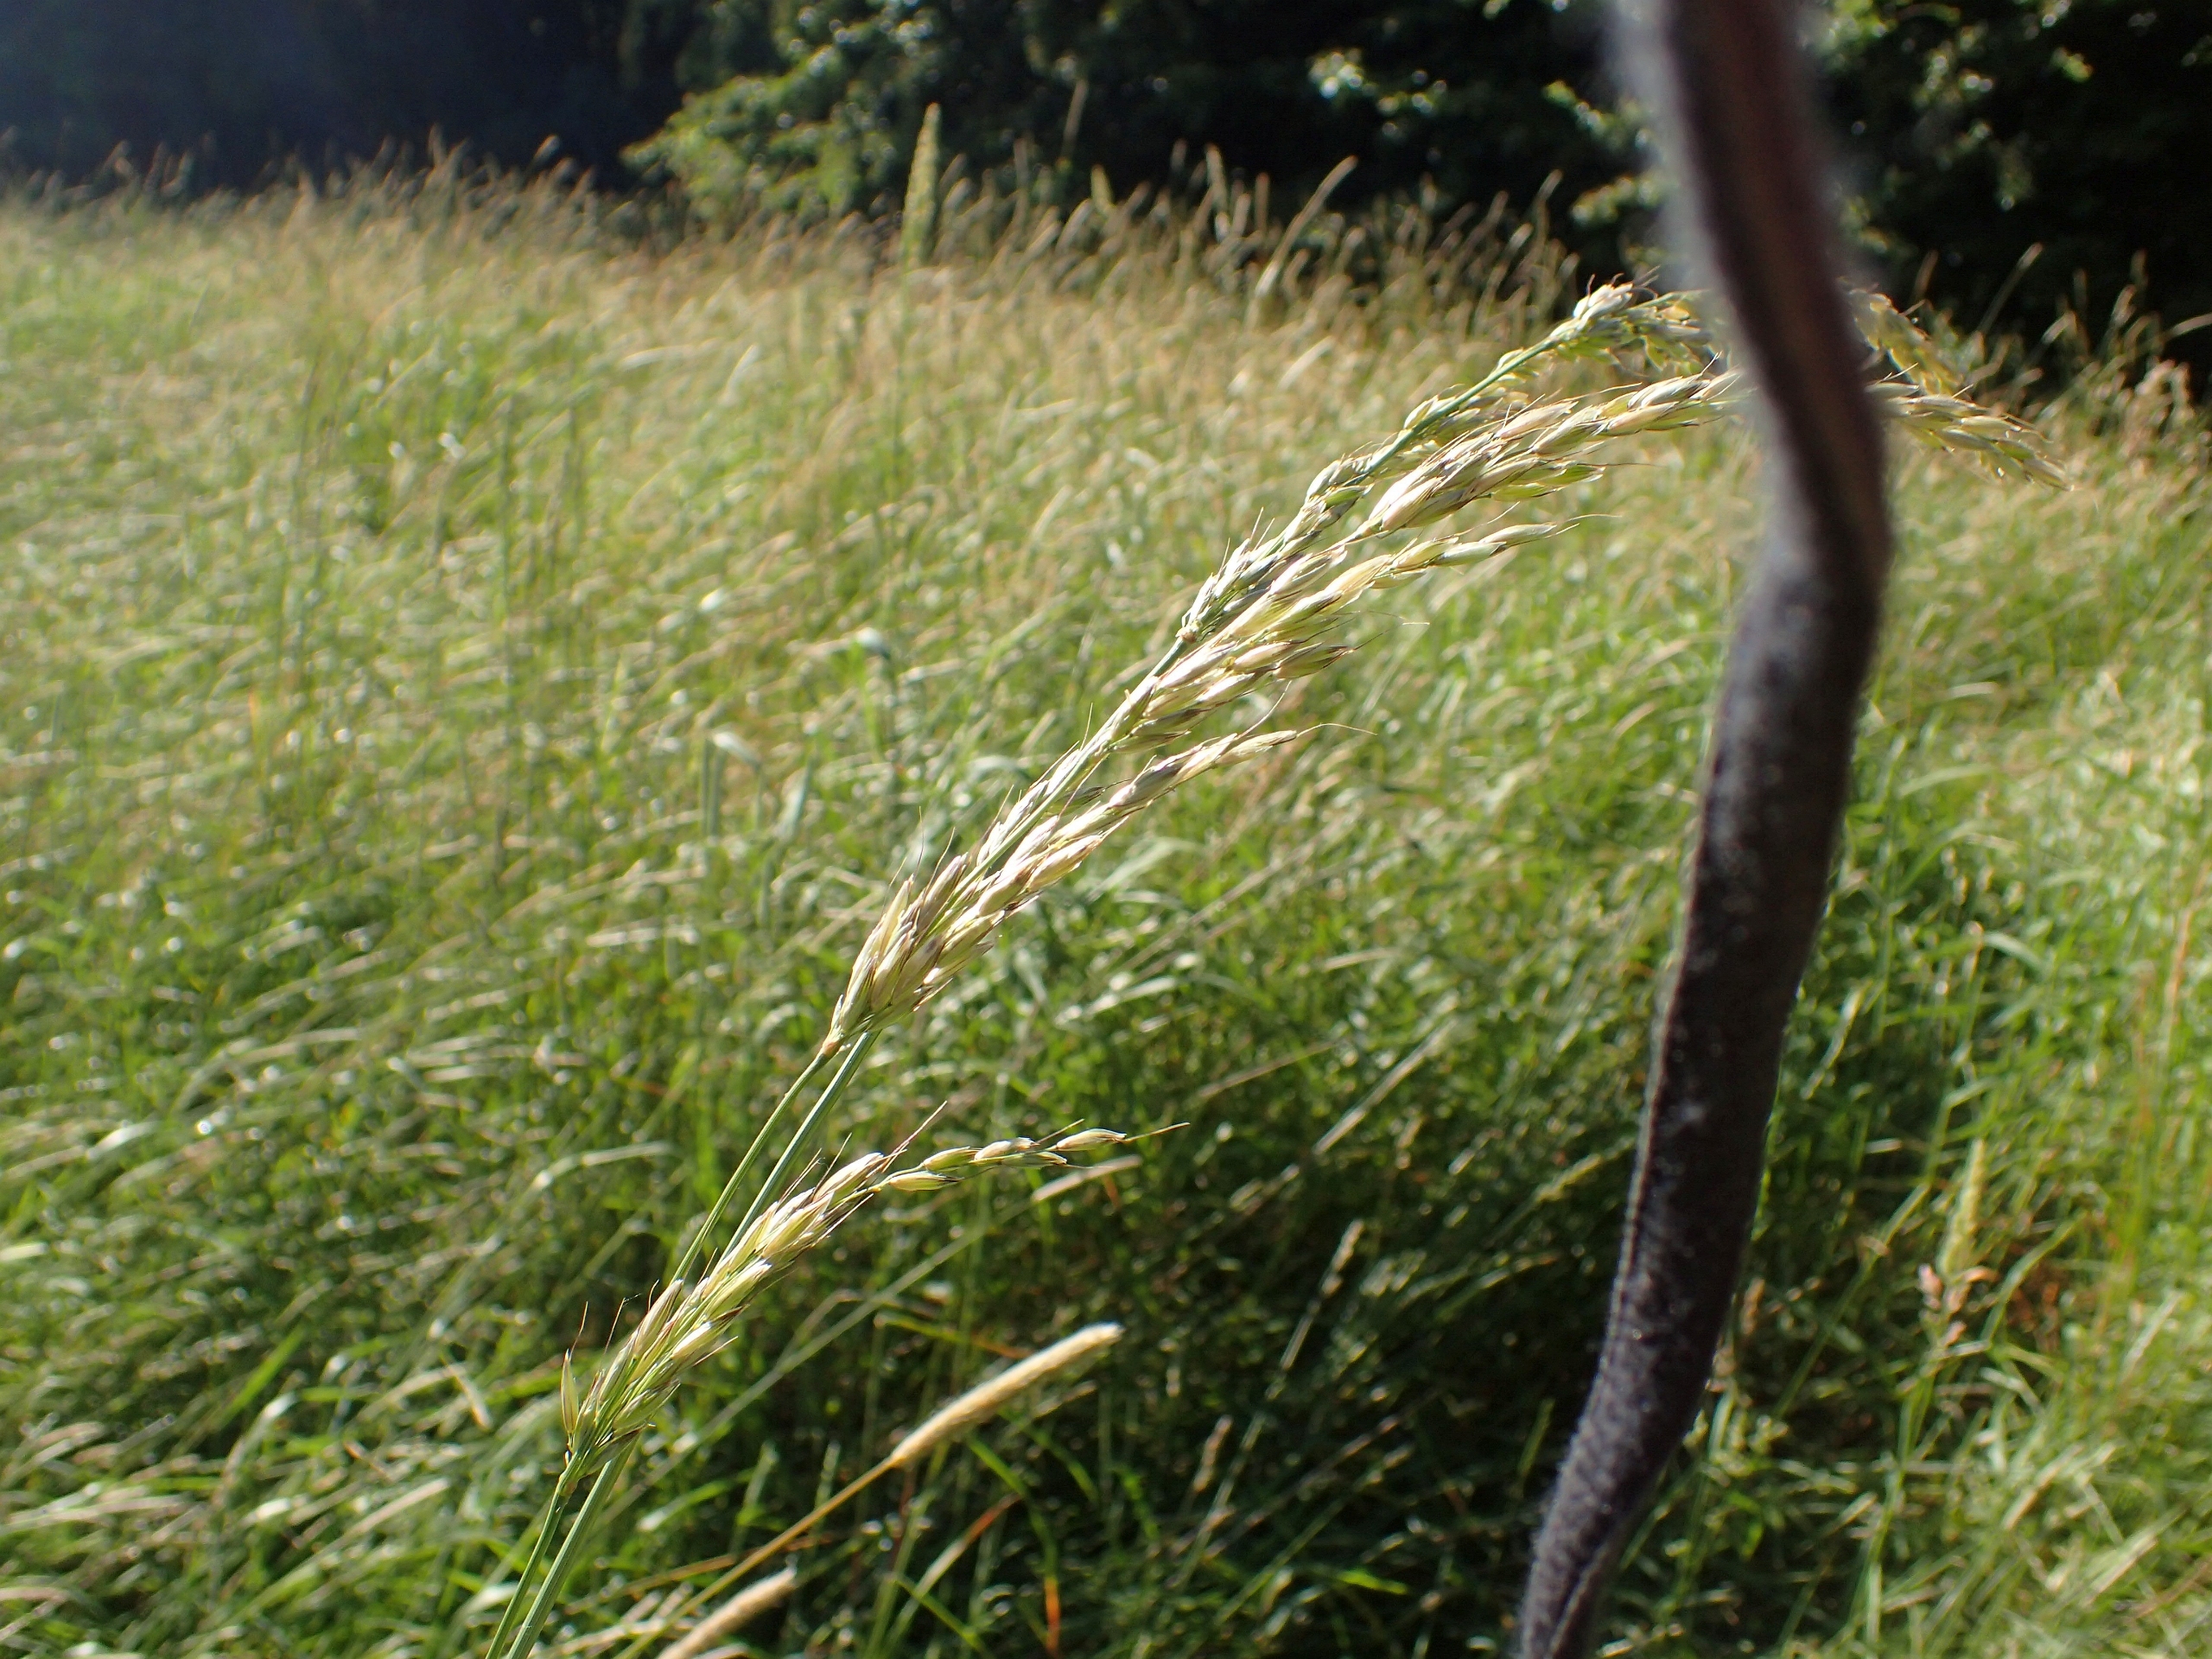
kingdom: Plantae
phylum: Tracheophyta
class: Liliopsida
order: Poales
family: Poaceae
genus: Arrhenatherum
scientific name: Arrhenatherum elatius
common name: Draphavre
